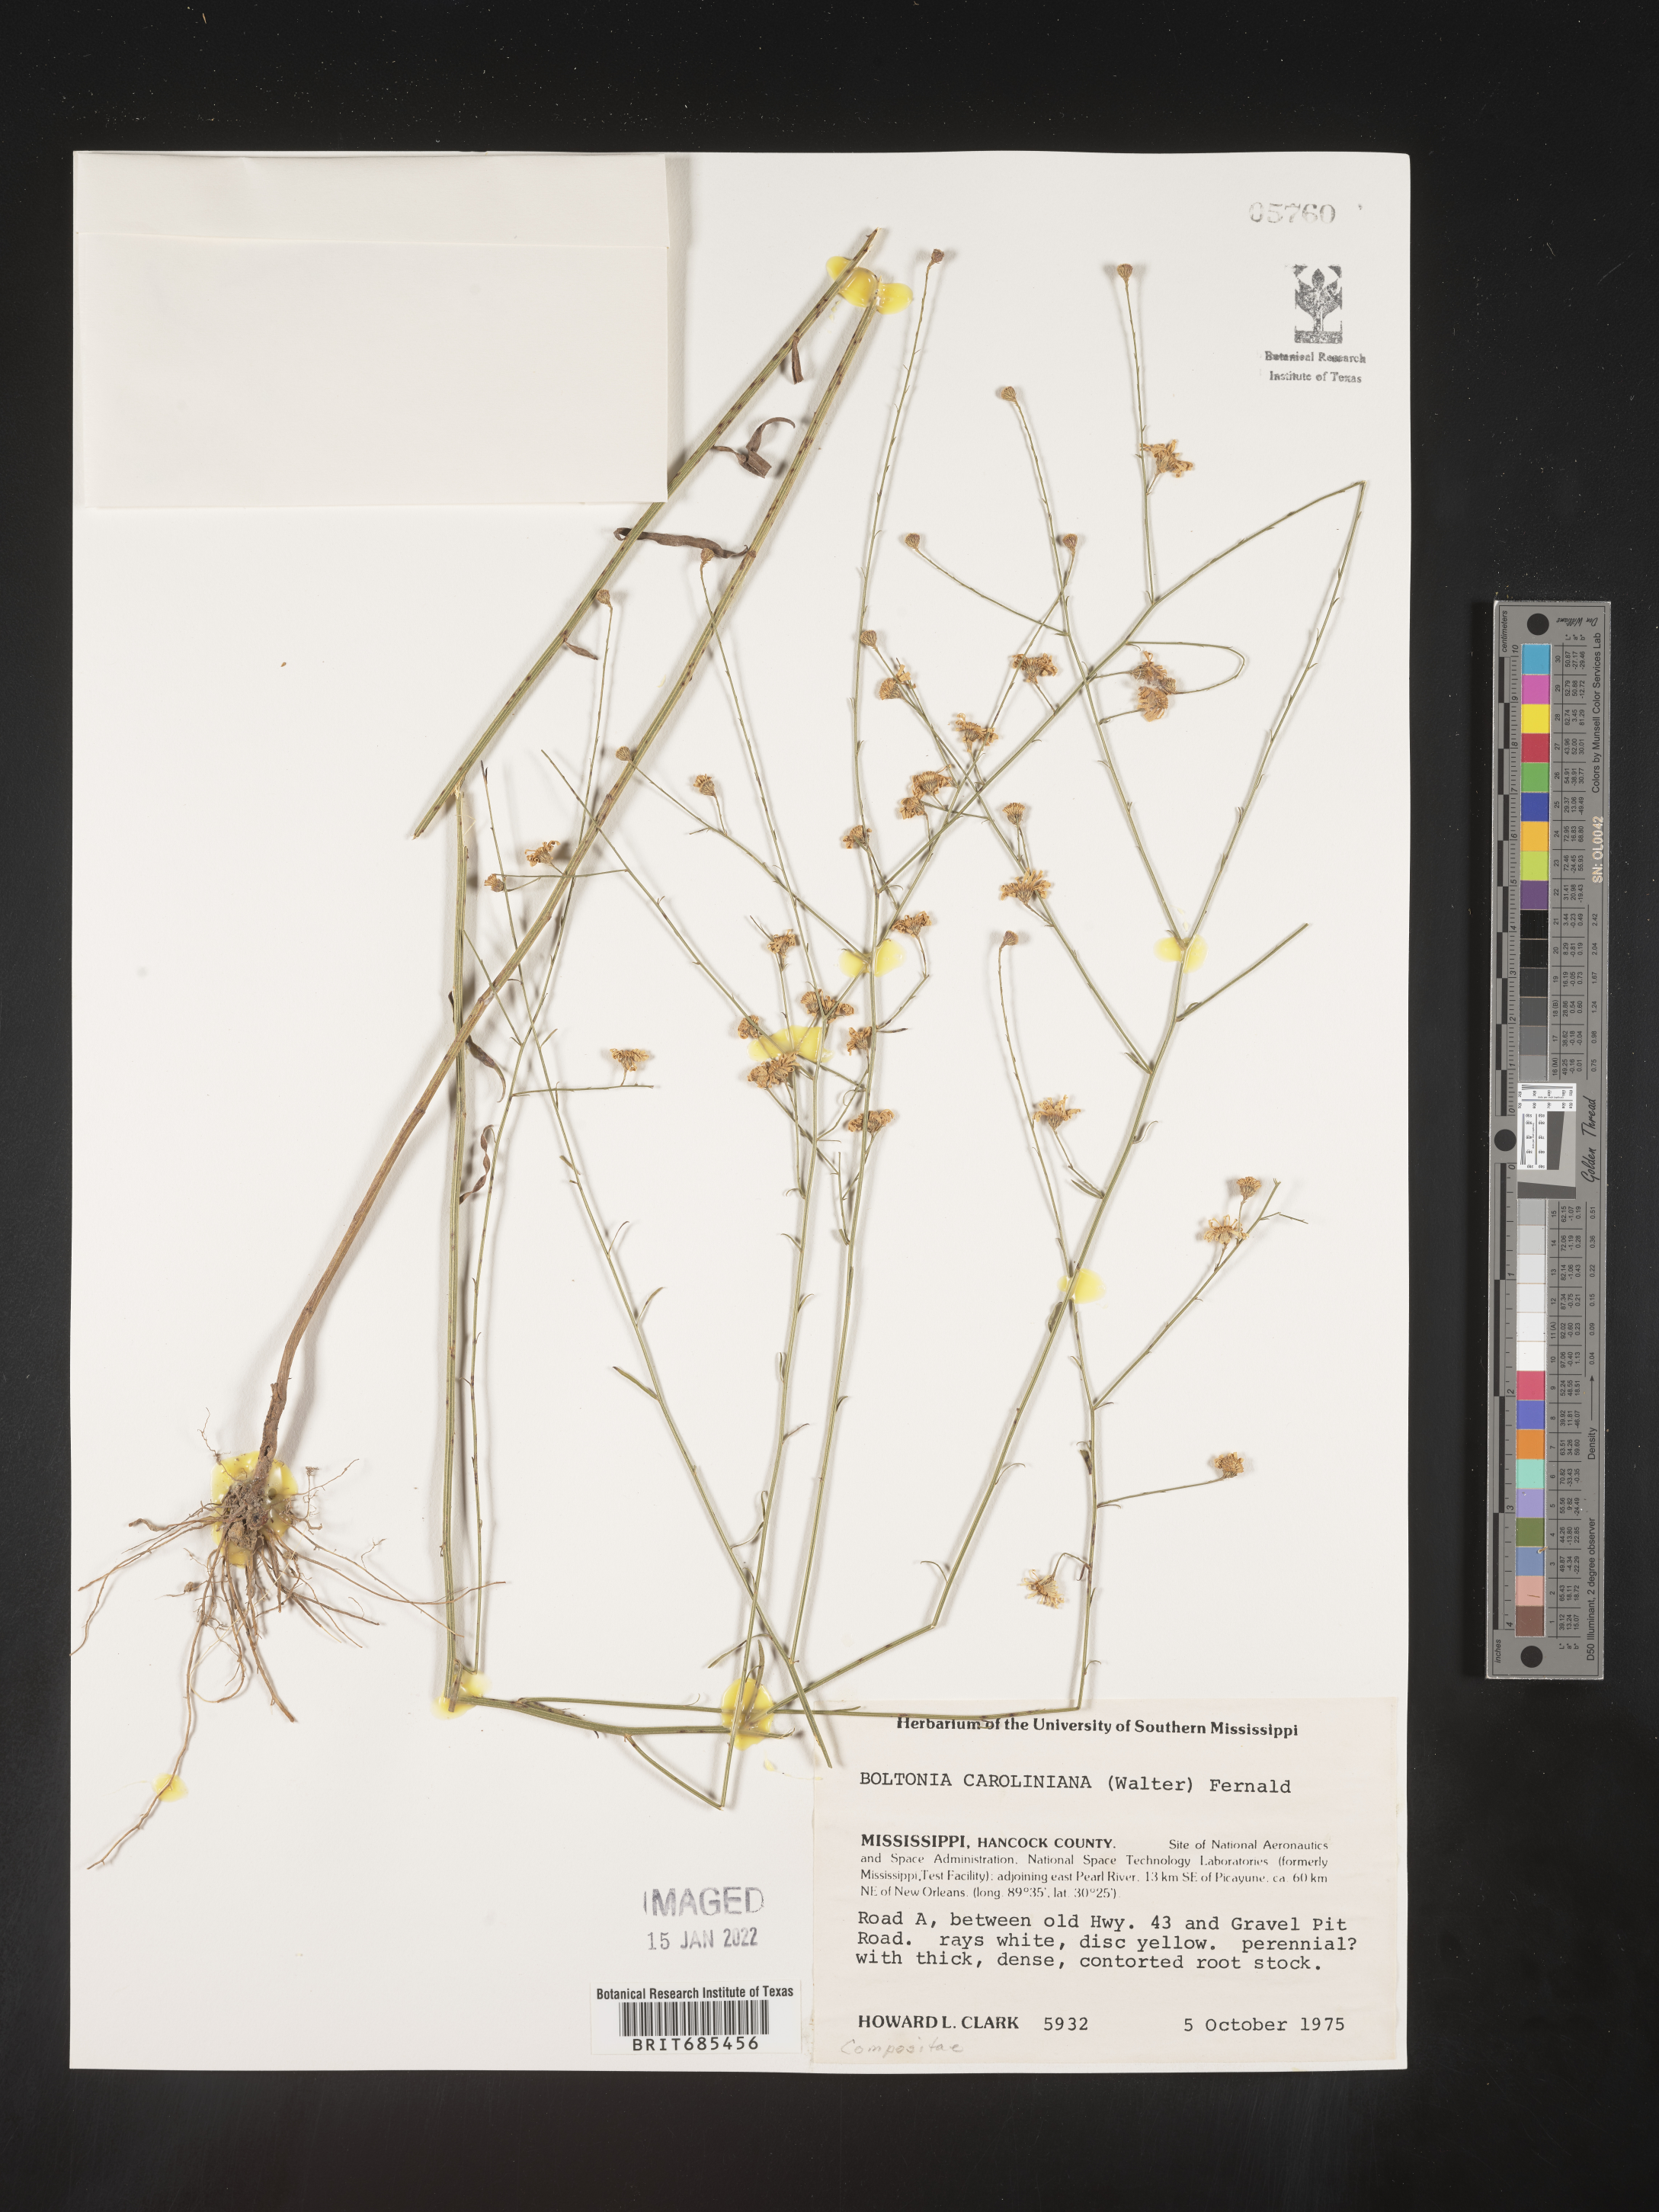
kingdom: Plantae
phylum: Tracheophyta
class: Magnoliopsida
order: Asterales
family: Asteraceae
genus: Boltonia
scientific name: Boltonia caroliniana
